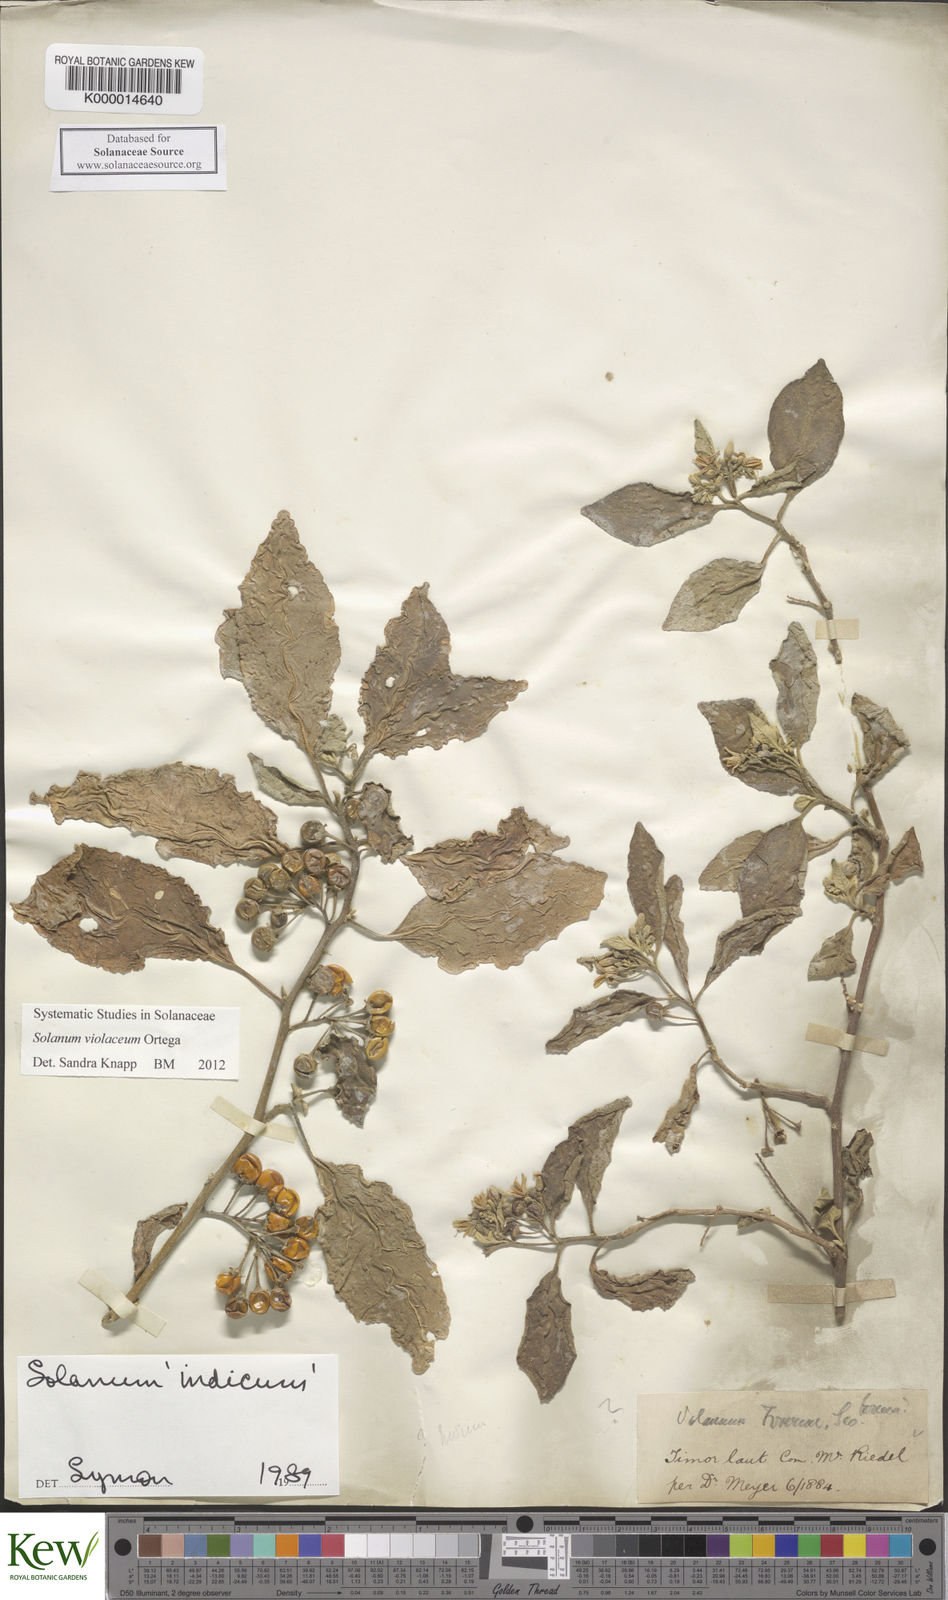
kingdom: Plantae
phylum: Tracheophyta
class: Magnoliopsida
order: Solanales
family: Solanaceae
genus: Solanum
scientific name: Solanum violaceum
